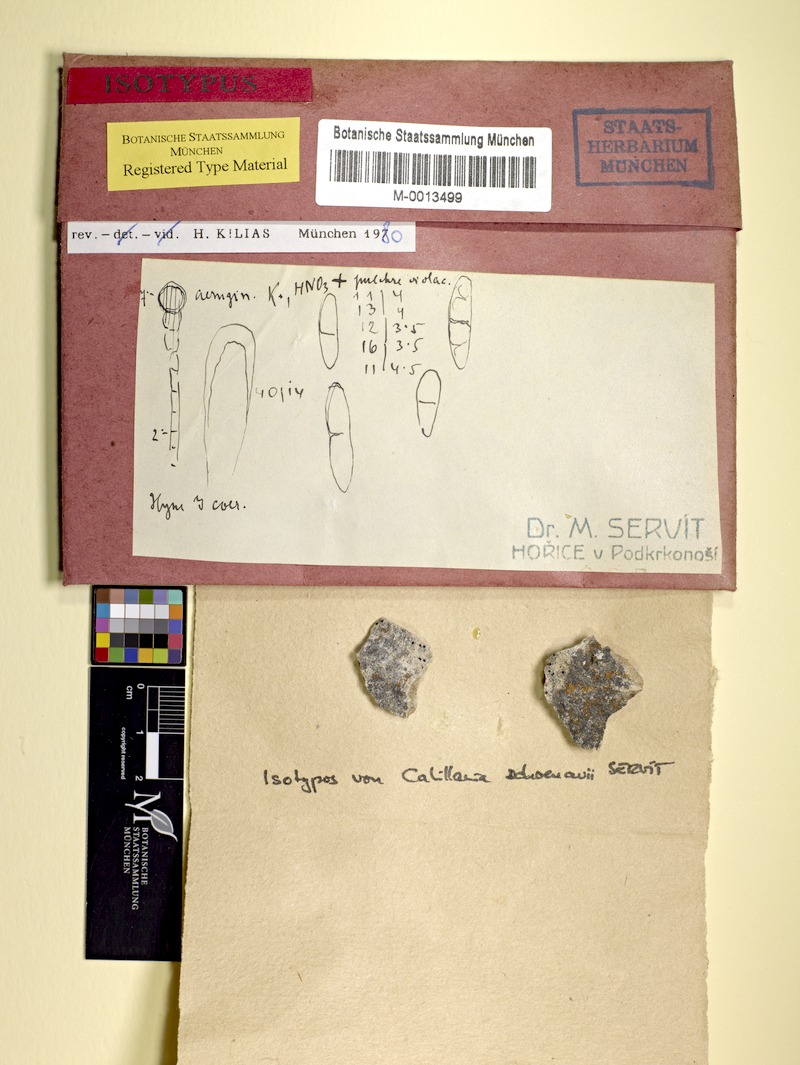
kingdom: Fungi
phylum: Ascomycota
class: Lecanoromycetes
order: Lecanorales
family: Catillariaceae
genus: Catillaria
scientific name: Catillaria anisospora
